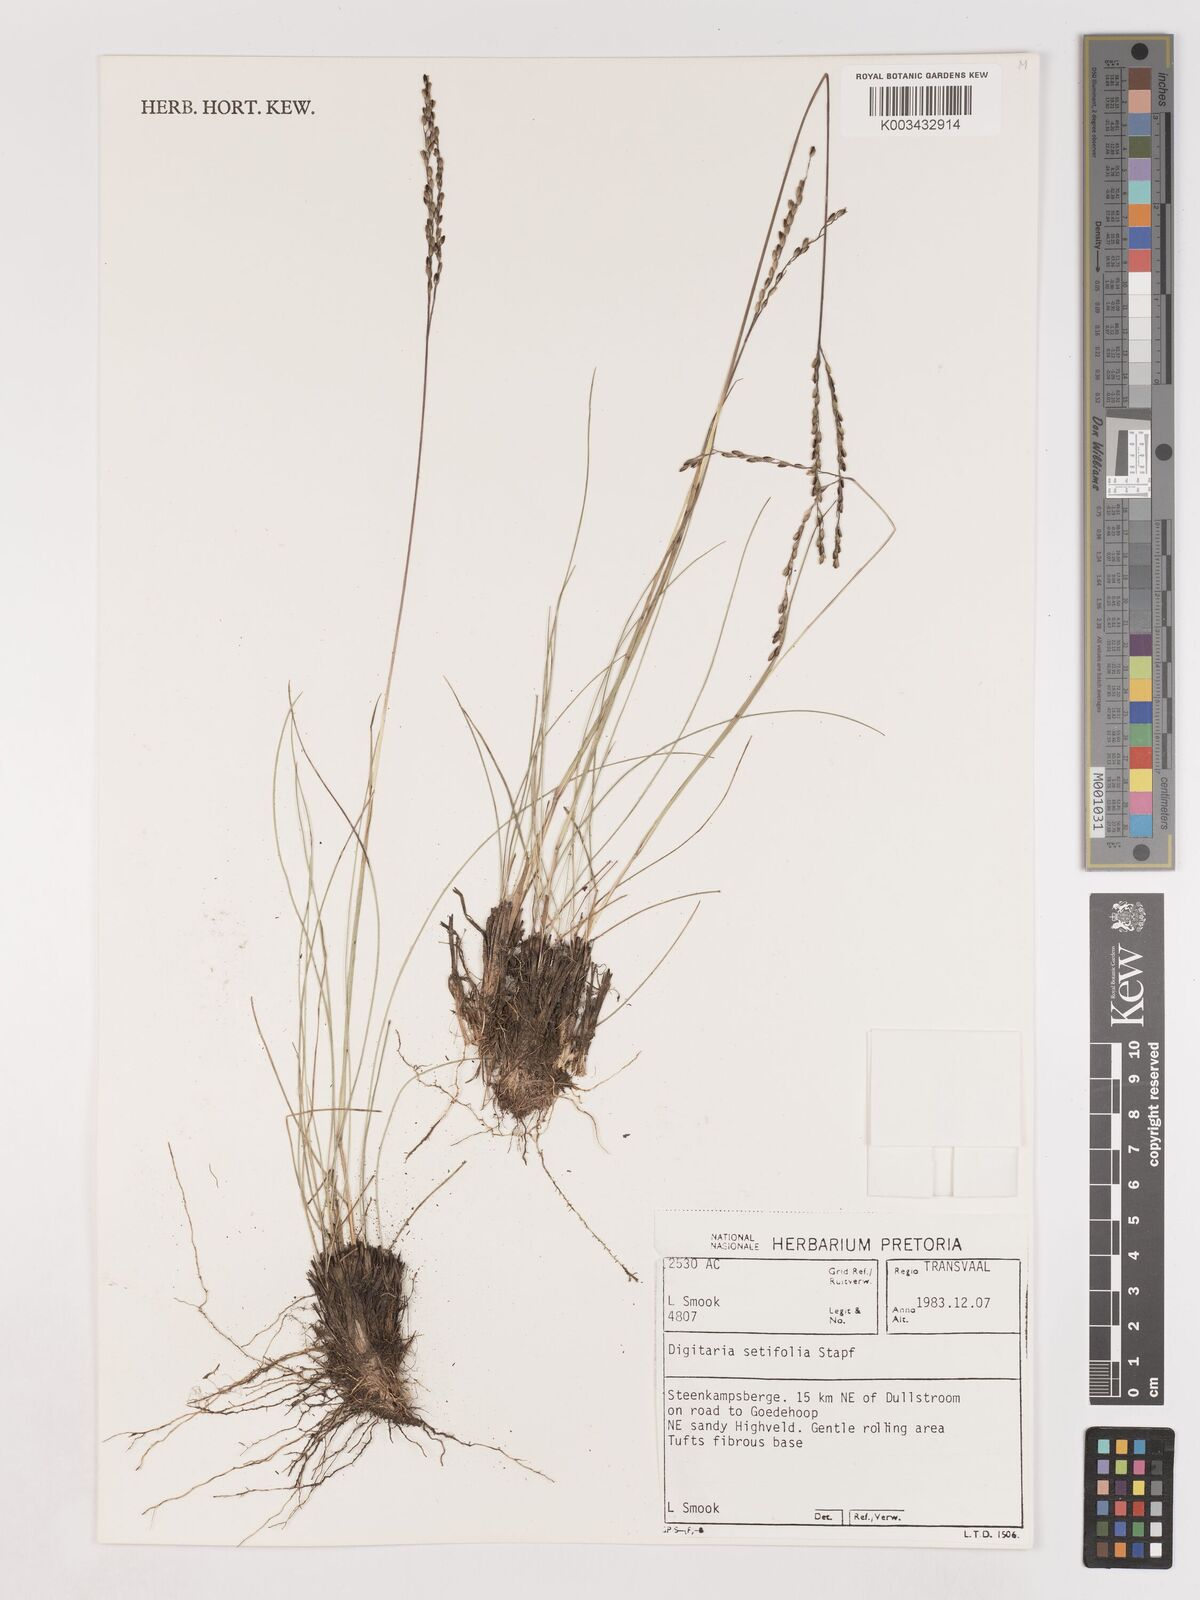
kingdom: Plantae
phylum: Tracheophyta
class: Liliopsida
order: Poales
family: Poaceae
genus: Digitaria
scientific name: Digitaria setifolia
